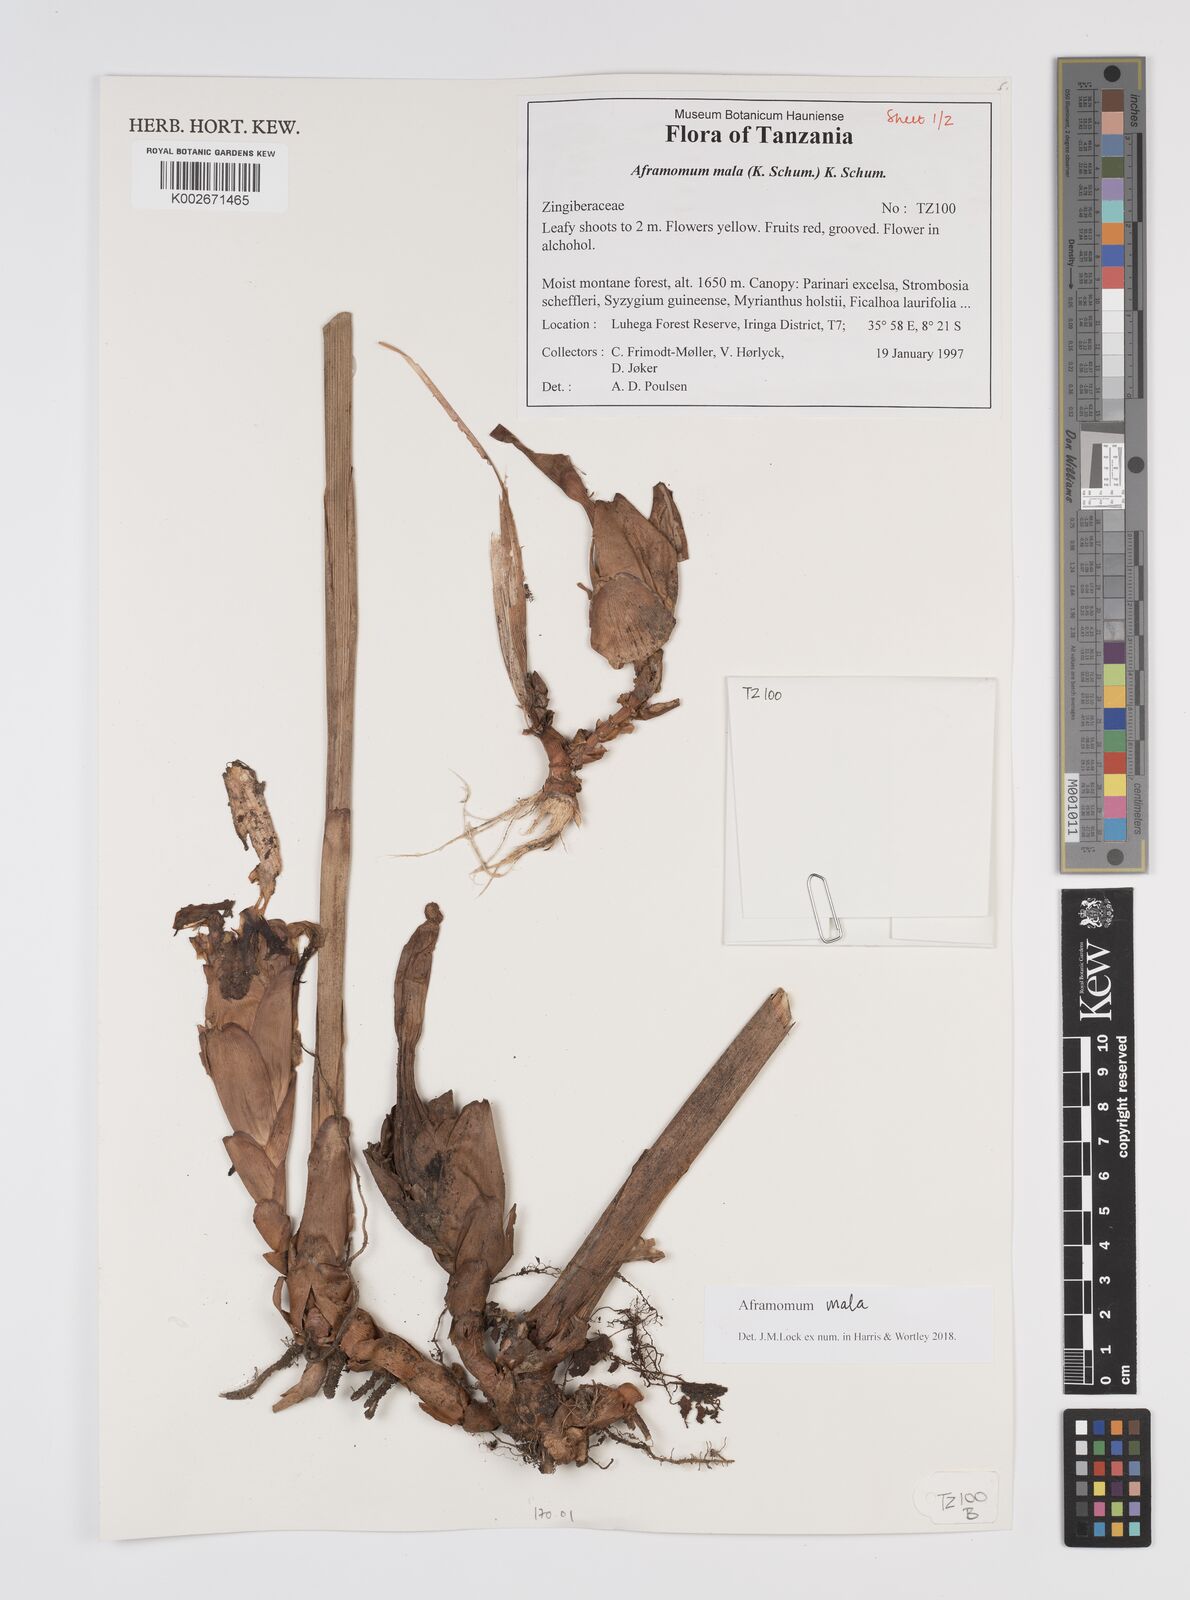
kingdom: Plantae
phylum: Tracheophyta
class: Liliopsida
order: Zingiberales
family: Zingiberaceae
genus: Aframomum
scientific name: Aframomum mala
